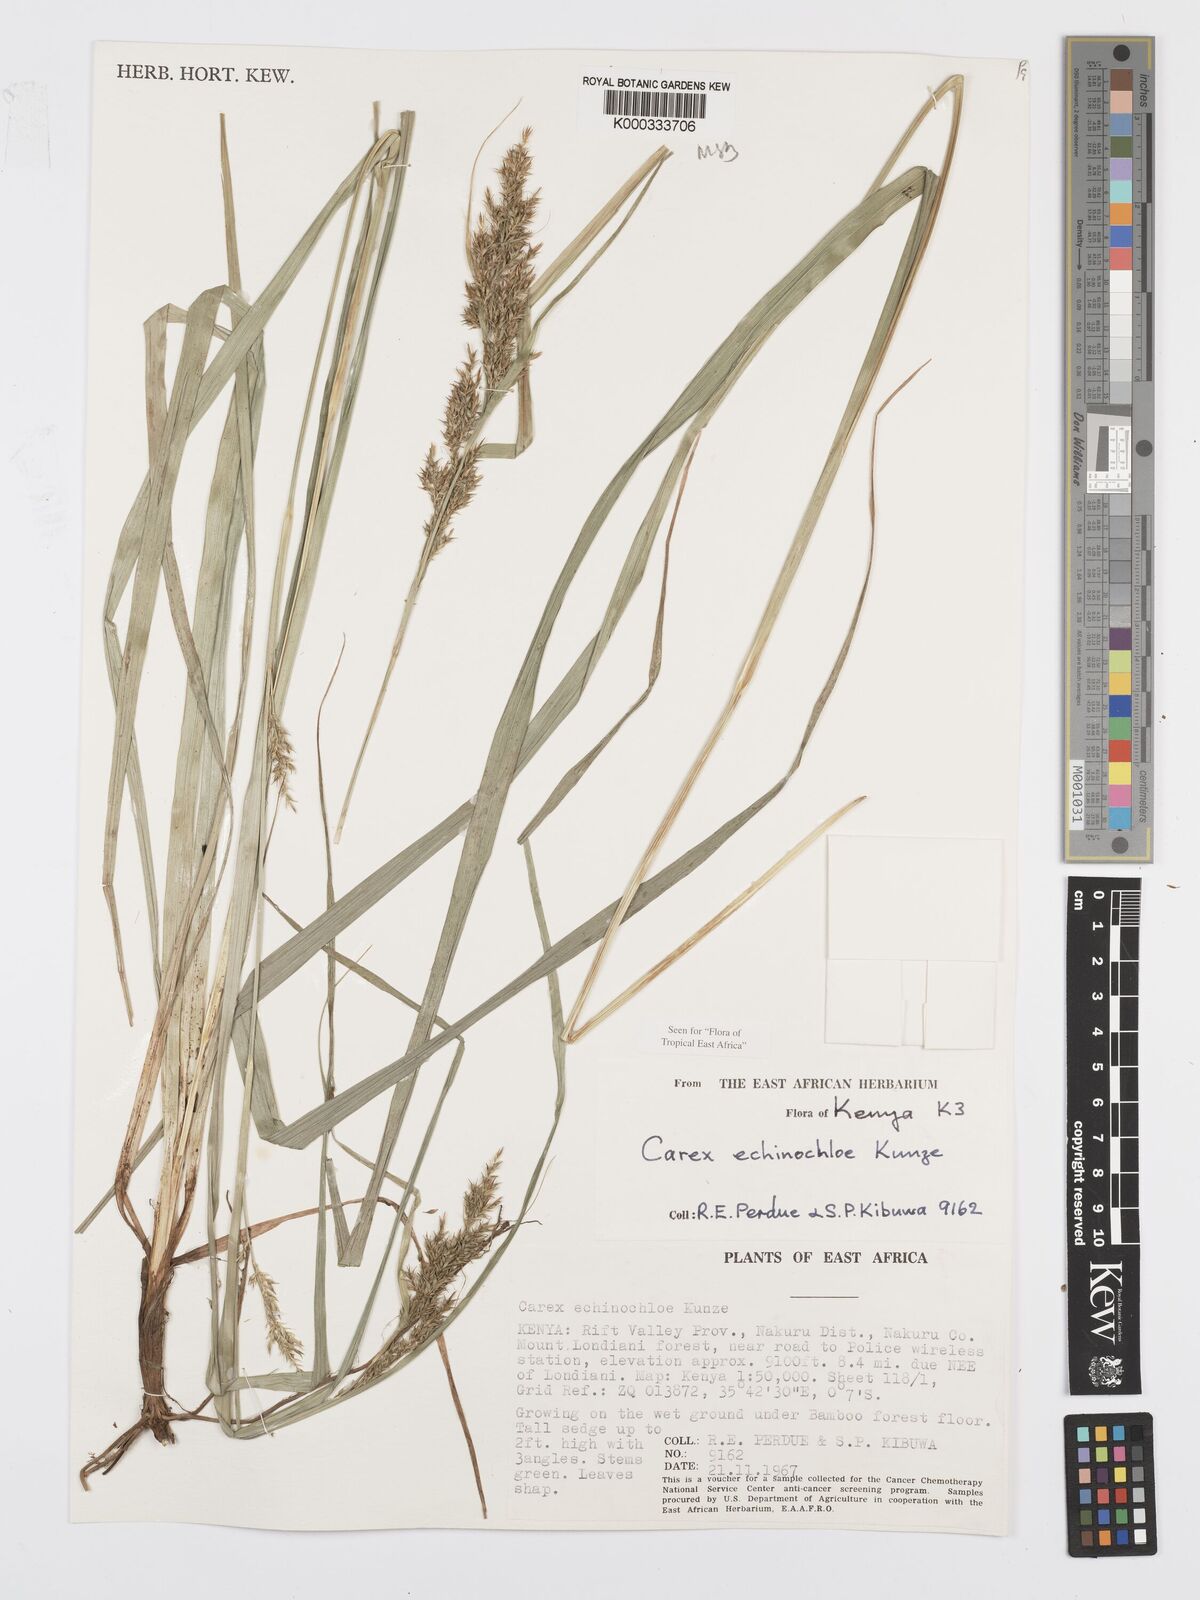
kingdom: Plantae
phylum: Tracheophyta
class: Liliopsida
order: Poales
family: Cyperaceae
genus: Carex
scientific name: Carex echinochloe
